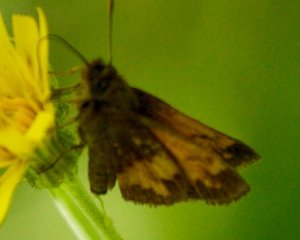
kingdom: Animalia
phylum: Arthropoda
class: Insecta
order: Lepidoptera
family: Hesperiidae
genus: Lon
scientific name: Lon hobomok
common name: Hobomok Skipper
